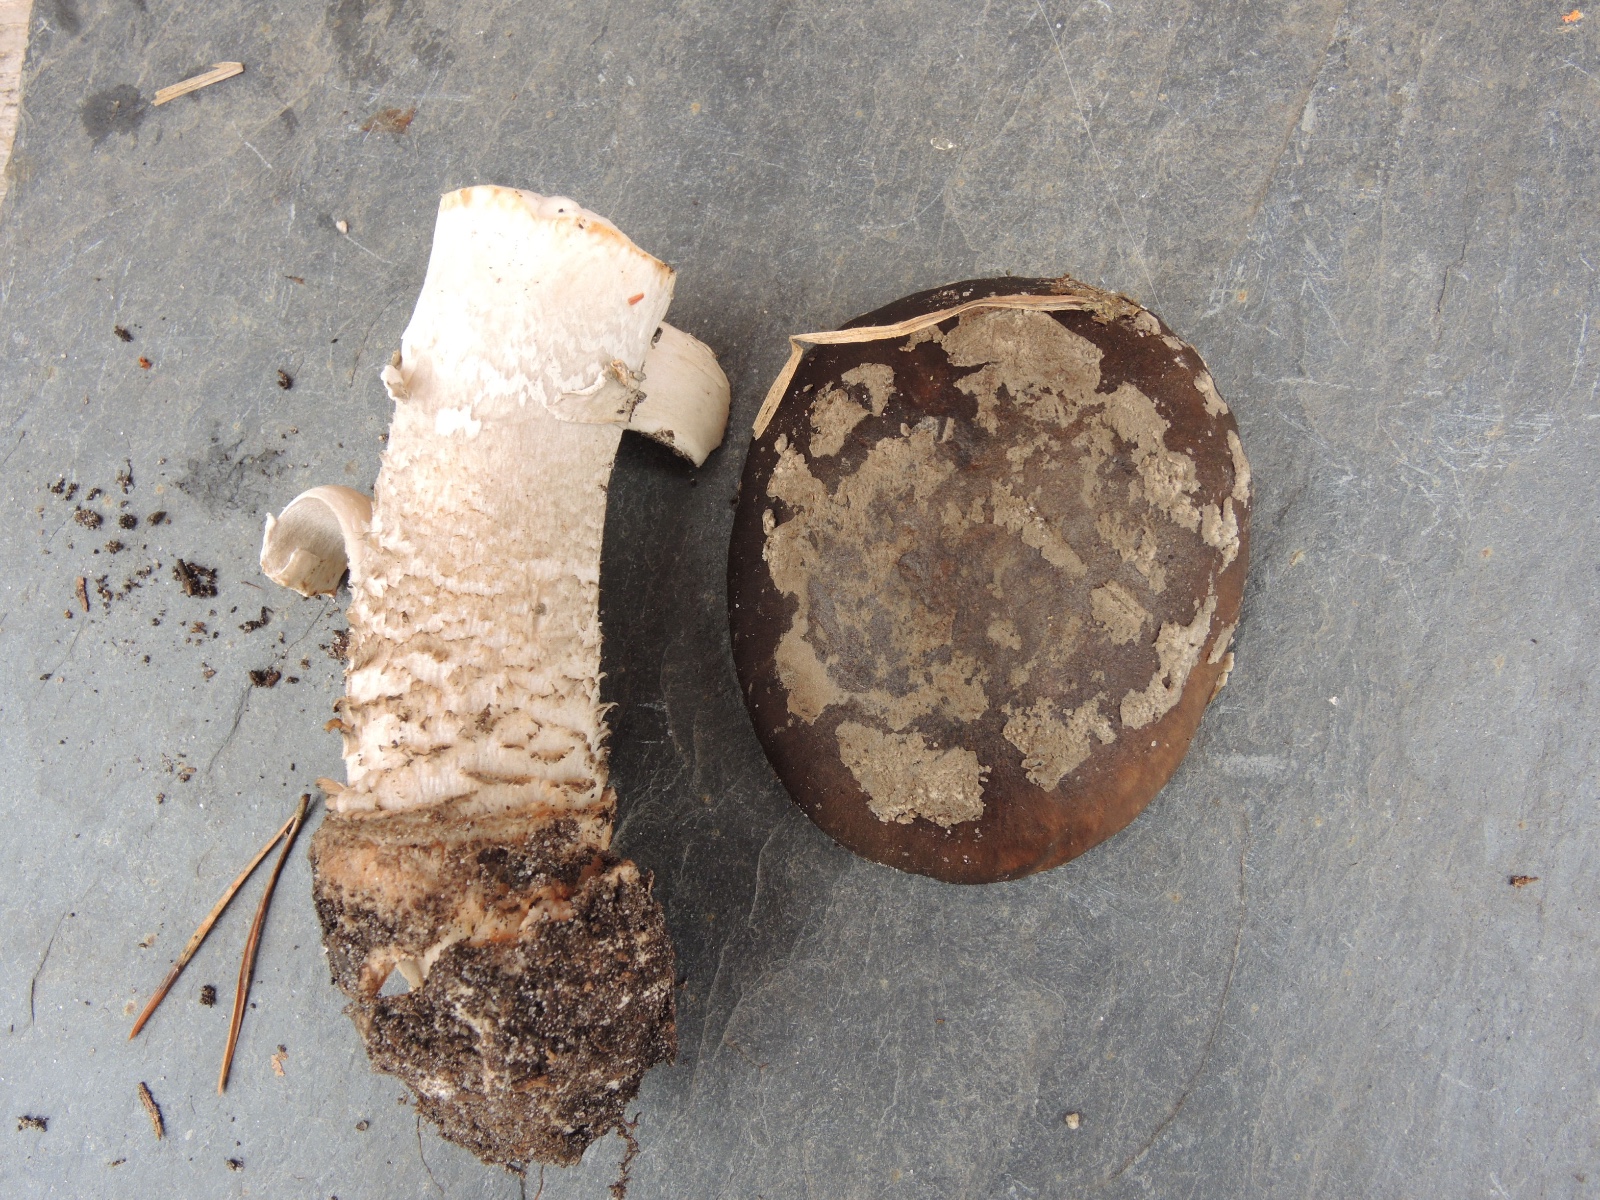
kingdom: Fungi
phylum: Basidiomycota
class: Agaricomycetes
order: Agaricales
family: Amanitaceae
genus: Amanita
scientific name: Amanita
